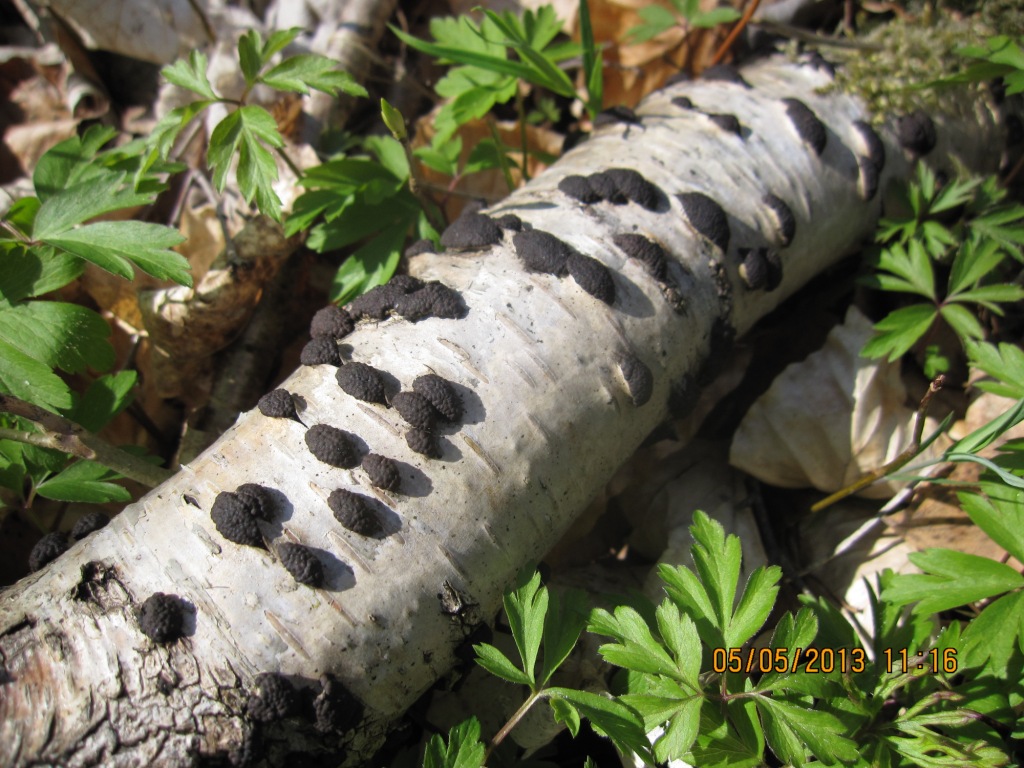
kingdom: Fungi
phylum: Ascomycota
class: Sordariomycetes
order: Xylariales
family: Hypoxylaceae
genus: Jackrogersella
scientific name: Jackrogersella multiformis
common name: foranderlig kulbær
